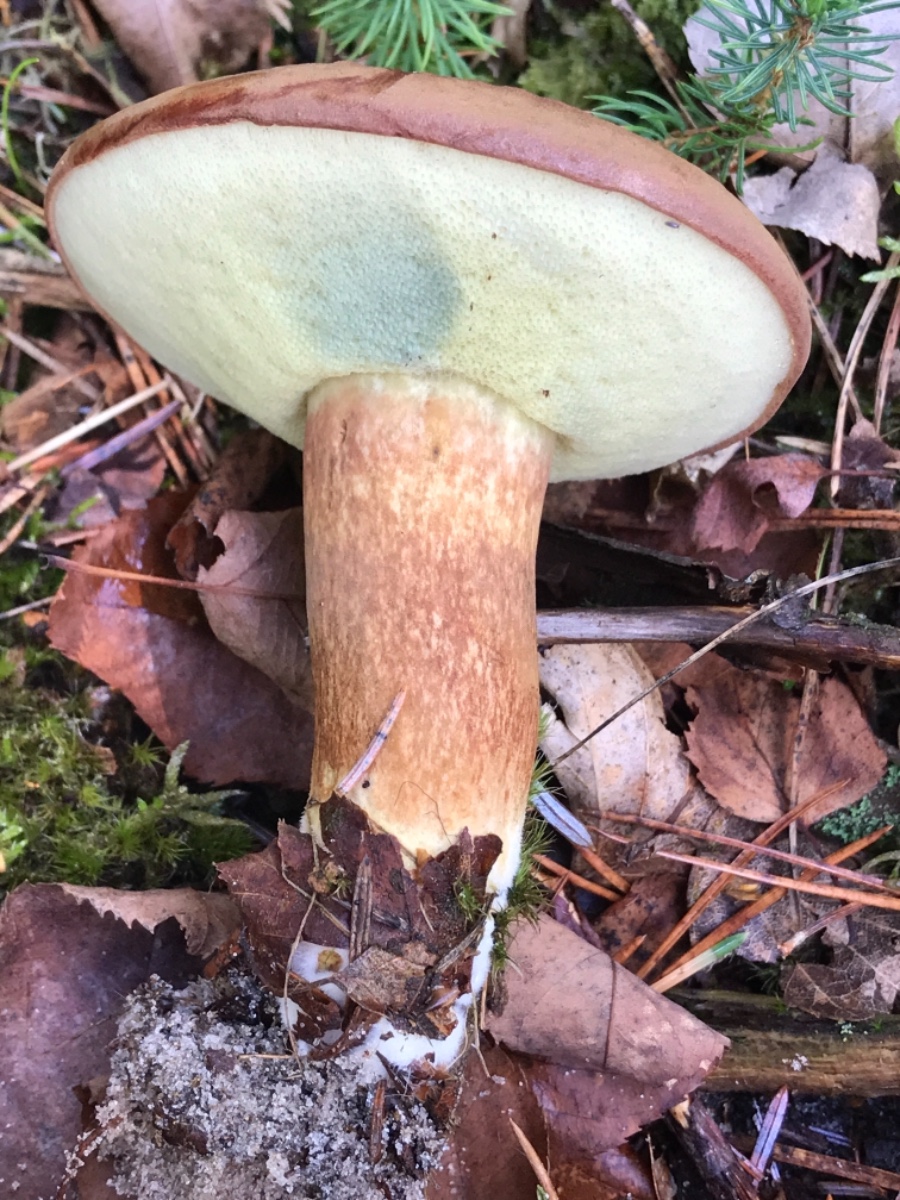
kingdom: Fungi
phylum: Basidiomycota
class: Agaricomycetes
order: Boletales
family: Boletaceae
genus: Imleria
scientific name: Imleria badia
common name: brunstokket rørhat
